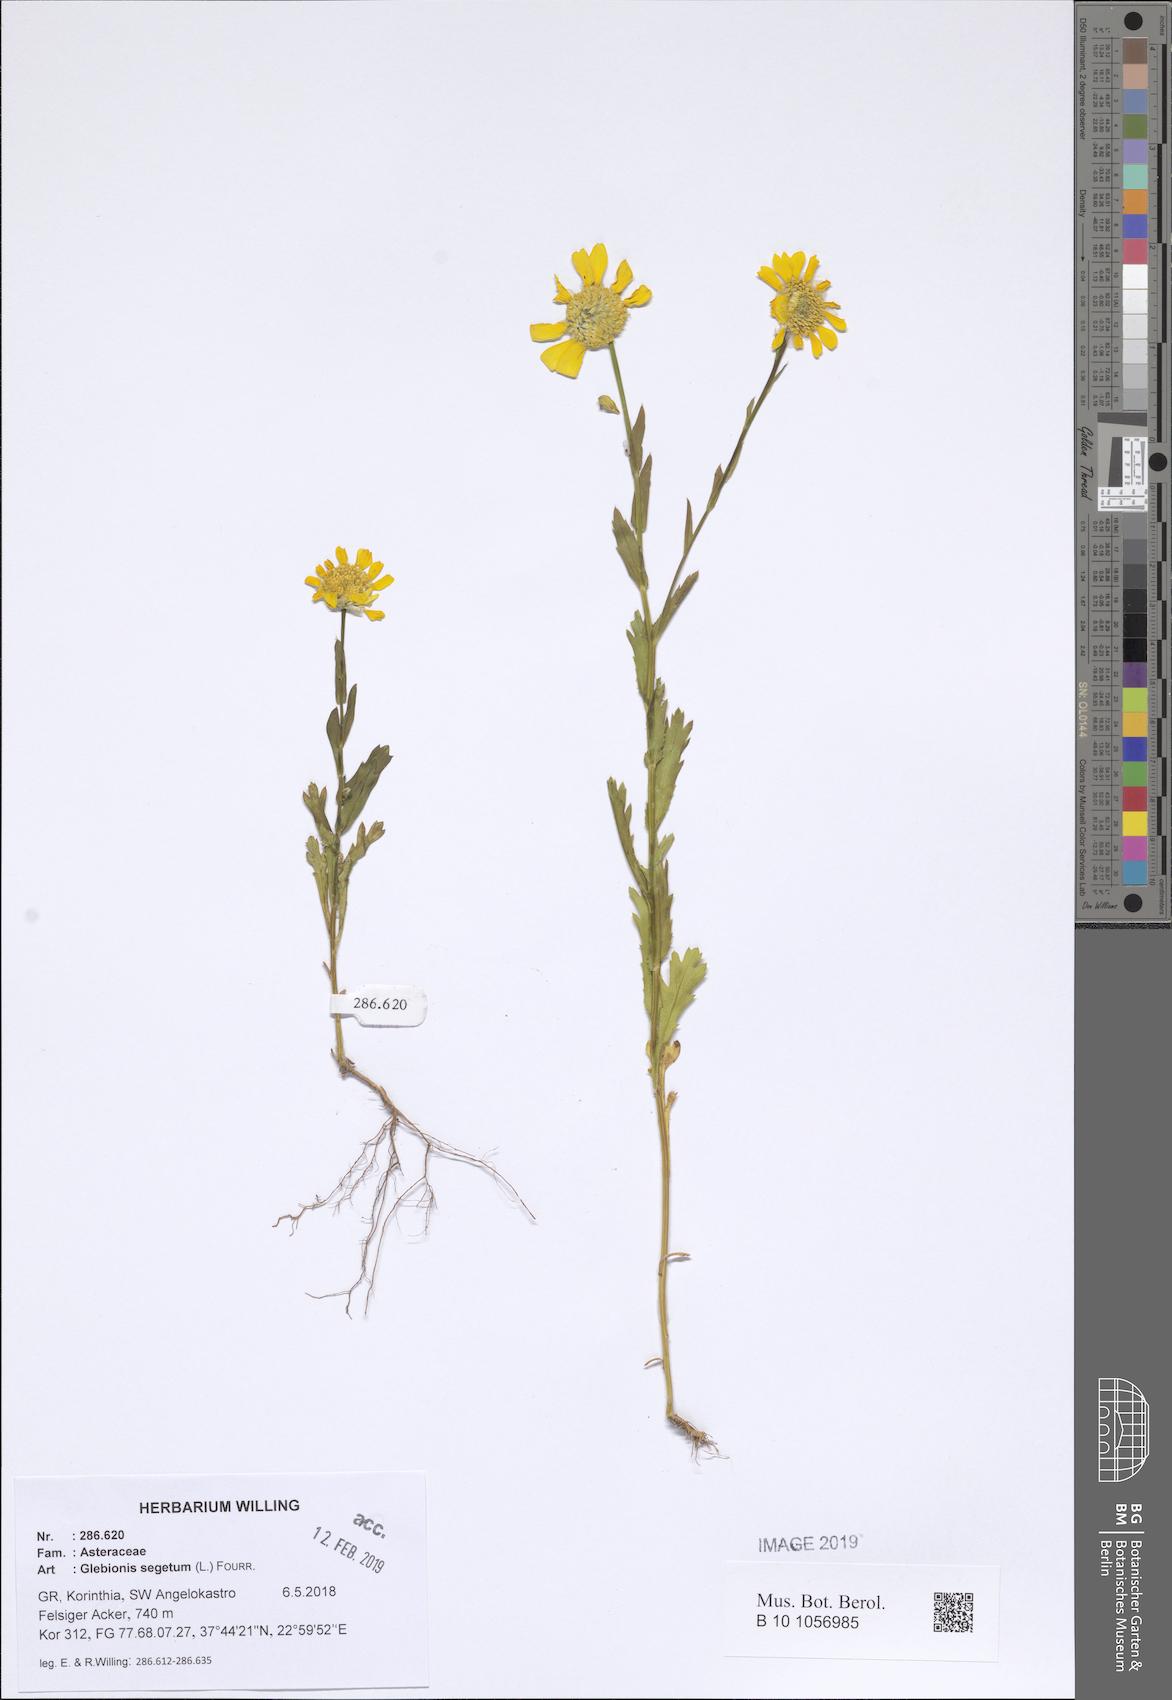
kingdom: Plantae
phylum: Tracheophyta
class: Magnoliopsida
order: Asterales
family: Asteraceae
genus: Glebionis
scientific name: Glebionis segetum
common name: Corndaisy
